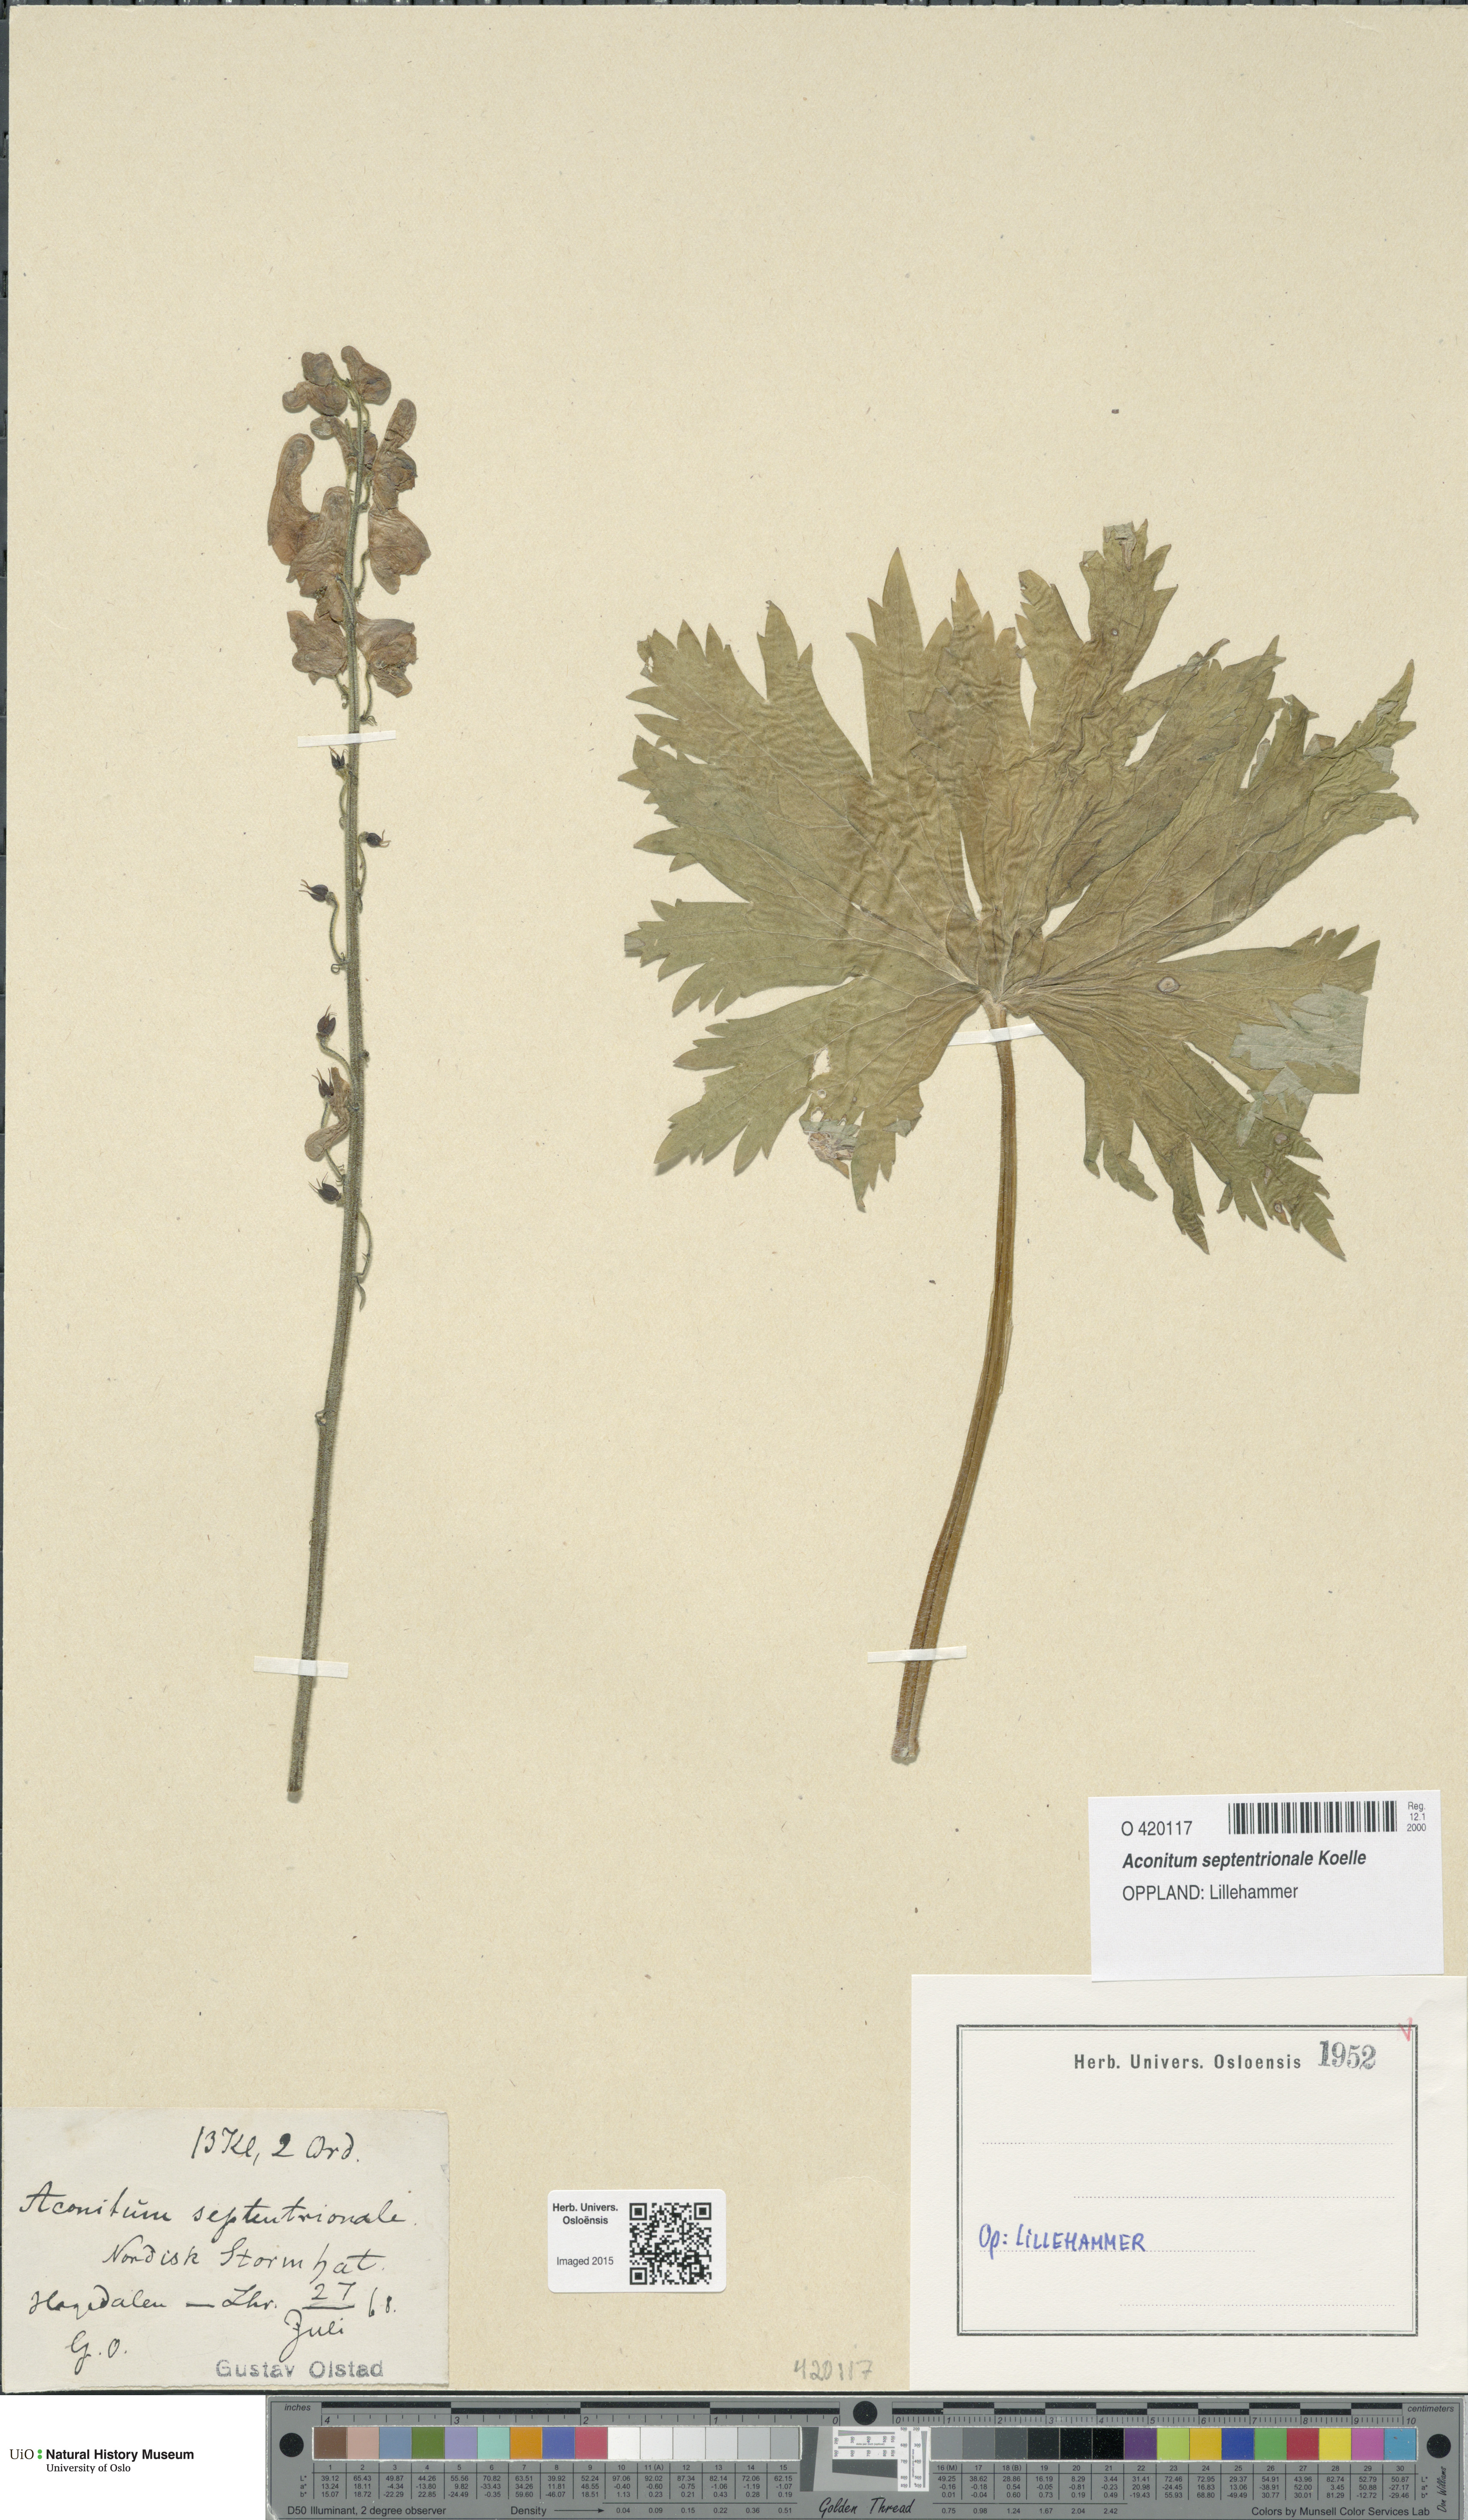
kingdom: Plantae
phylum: Tracheophyta
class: Magnoliopsida
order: Ranunculales
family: Ranunculaceae
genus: Aconitum
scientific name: Aconitum septentrionale
